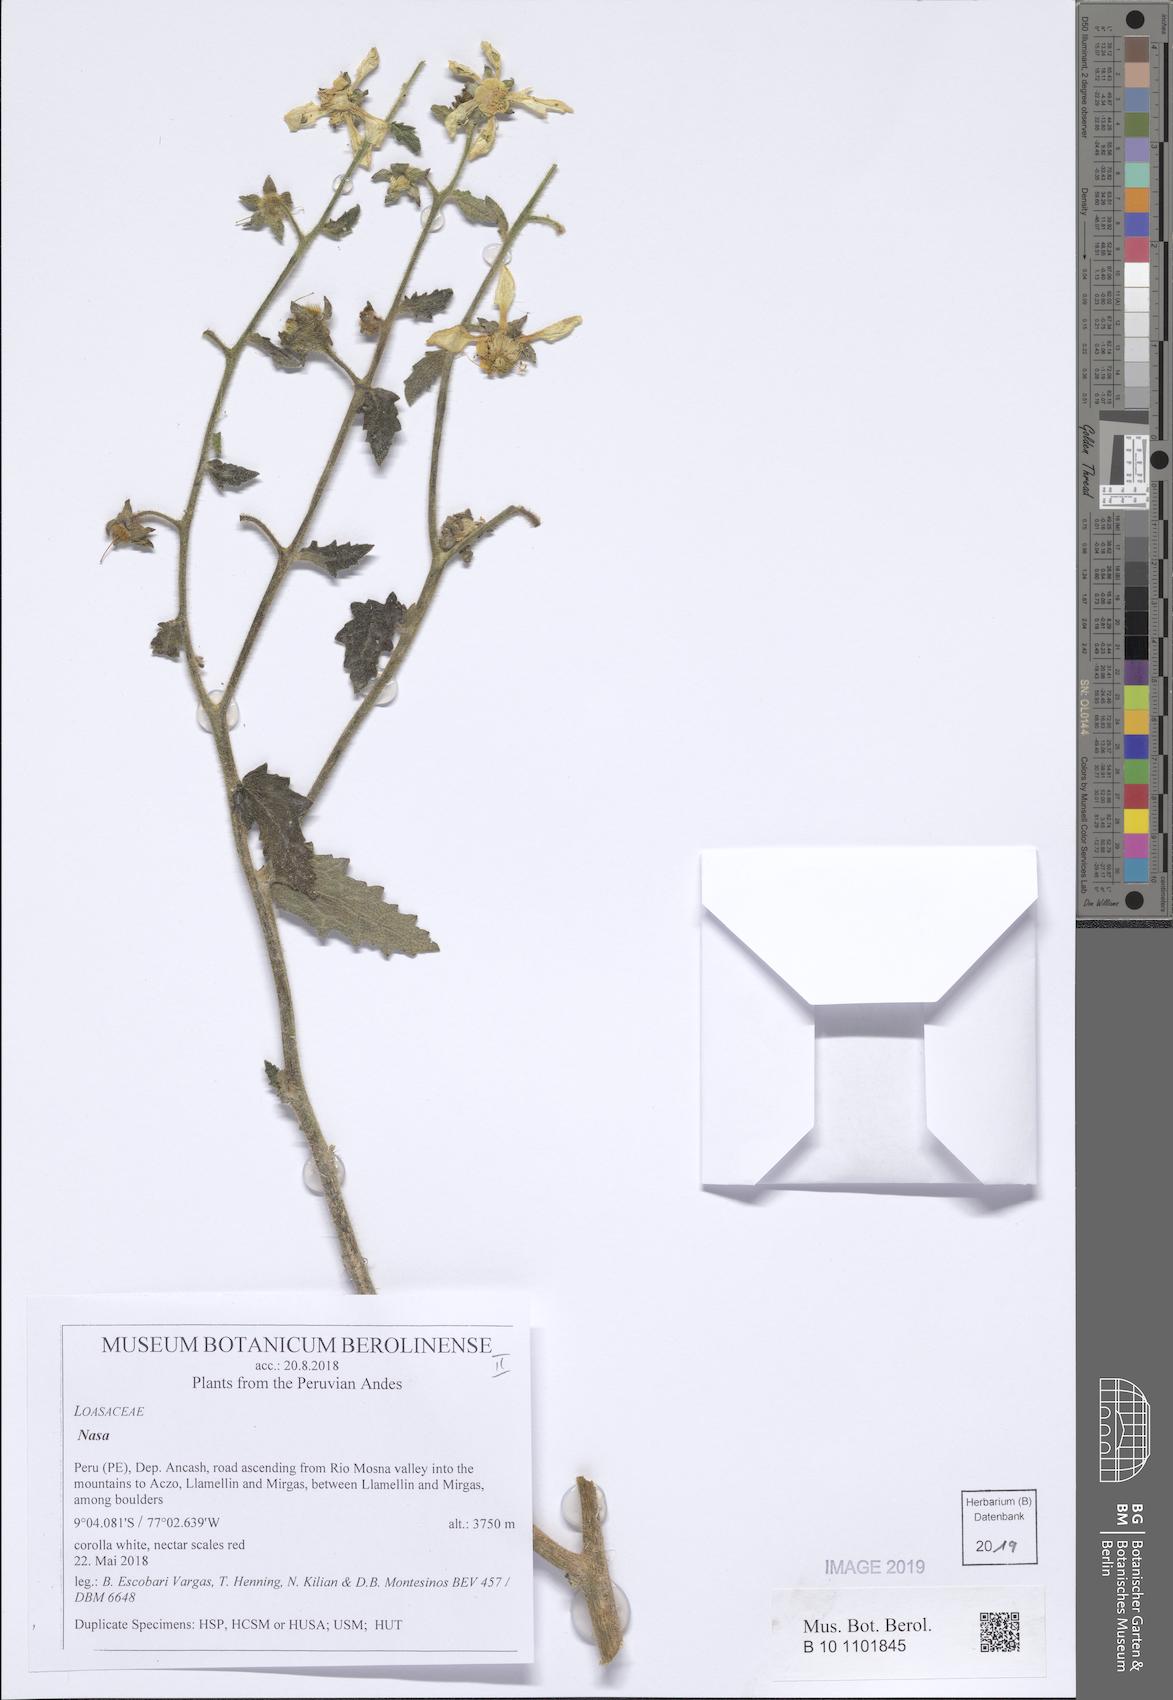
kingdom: Plantae
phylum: Tracheophyta
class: Magnoliopsida
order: Cornales
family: Loasaceae
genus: Nasa
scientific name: Nasa carunculata
